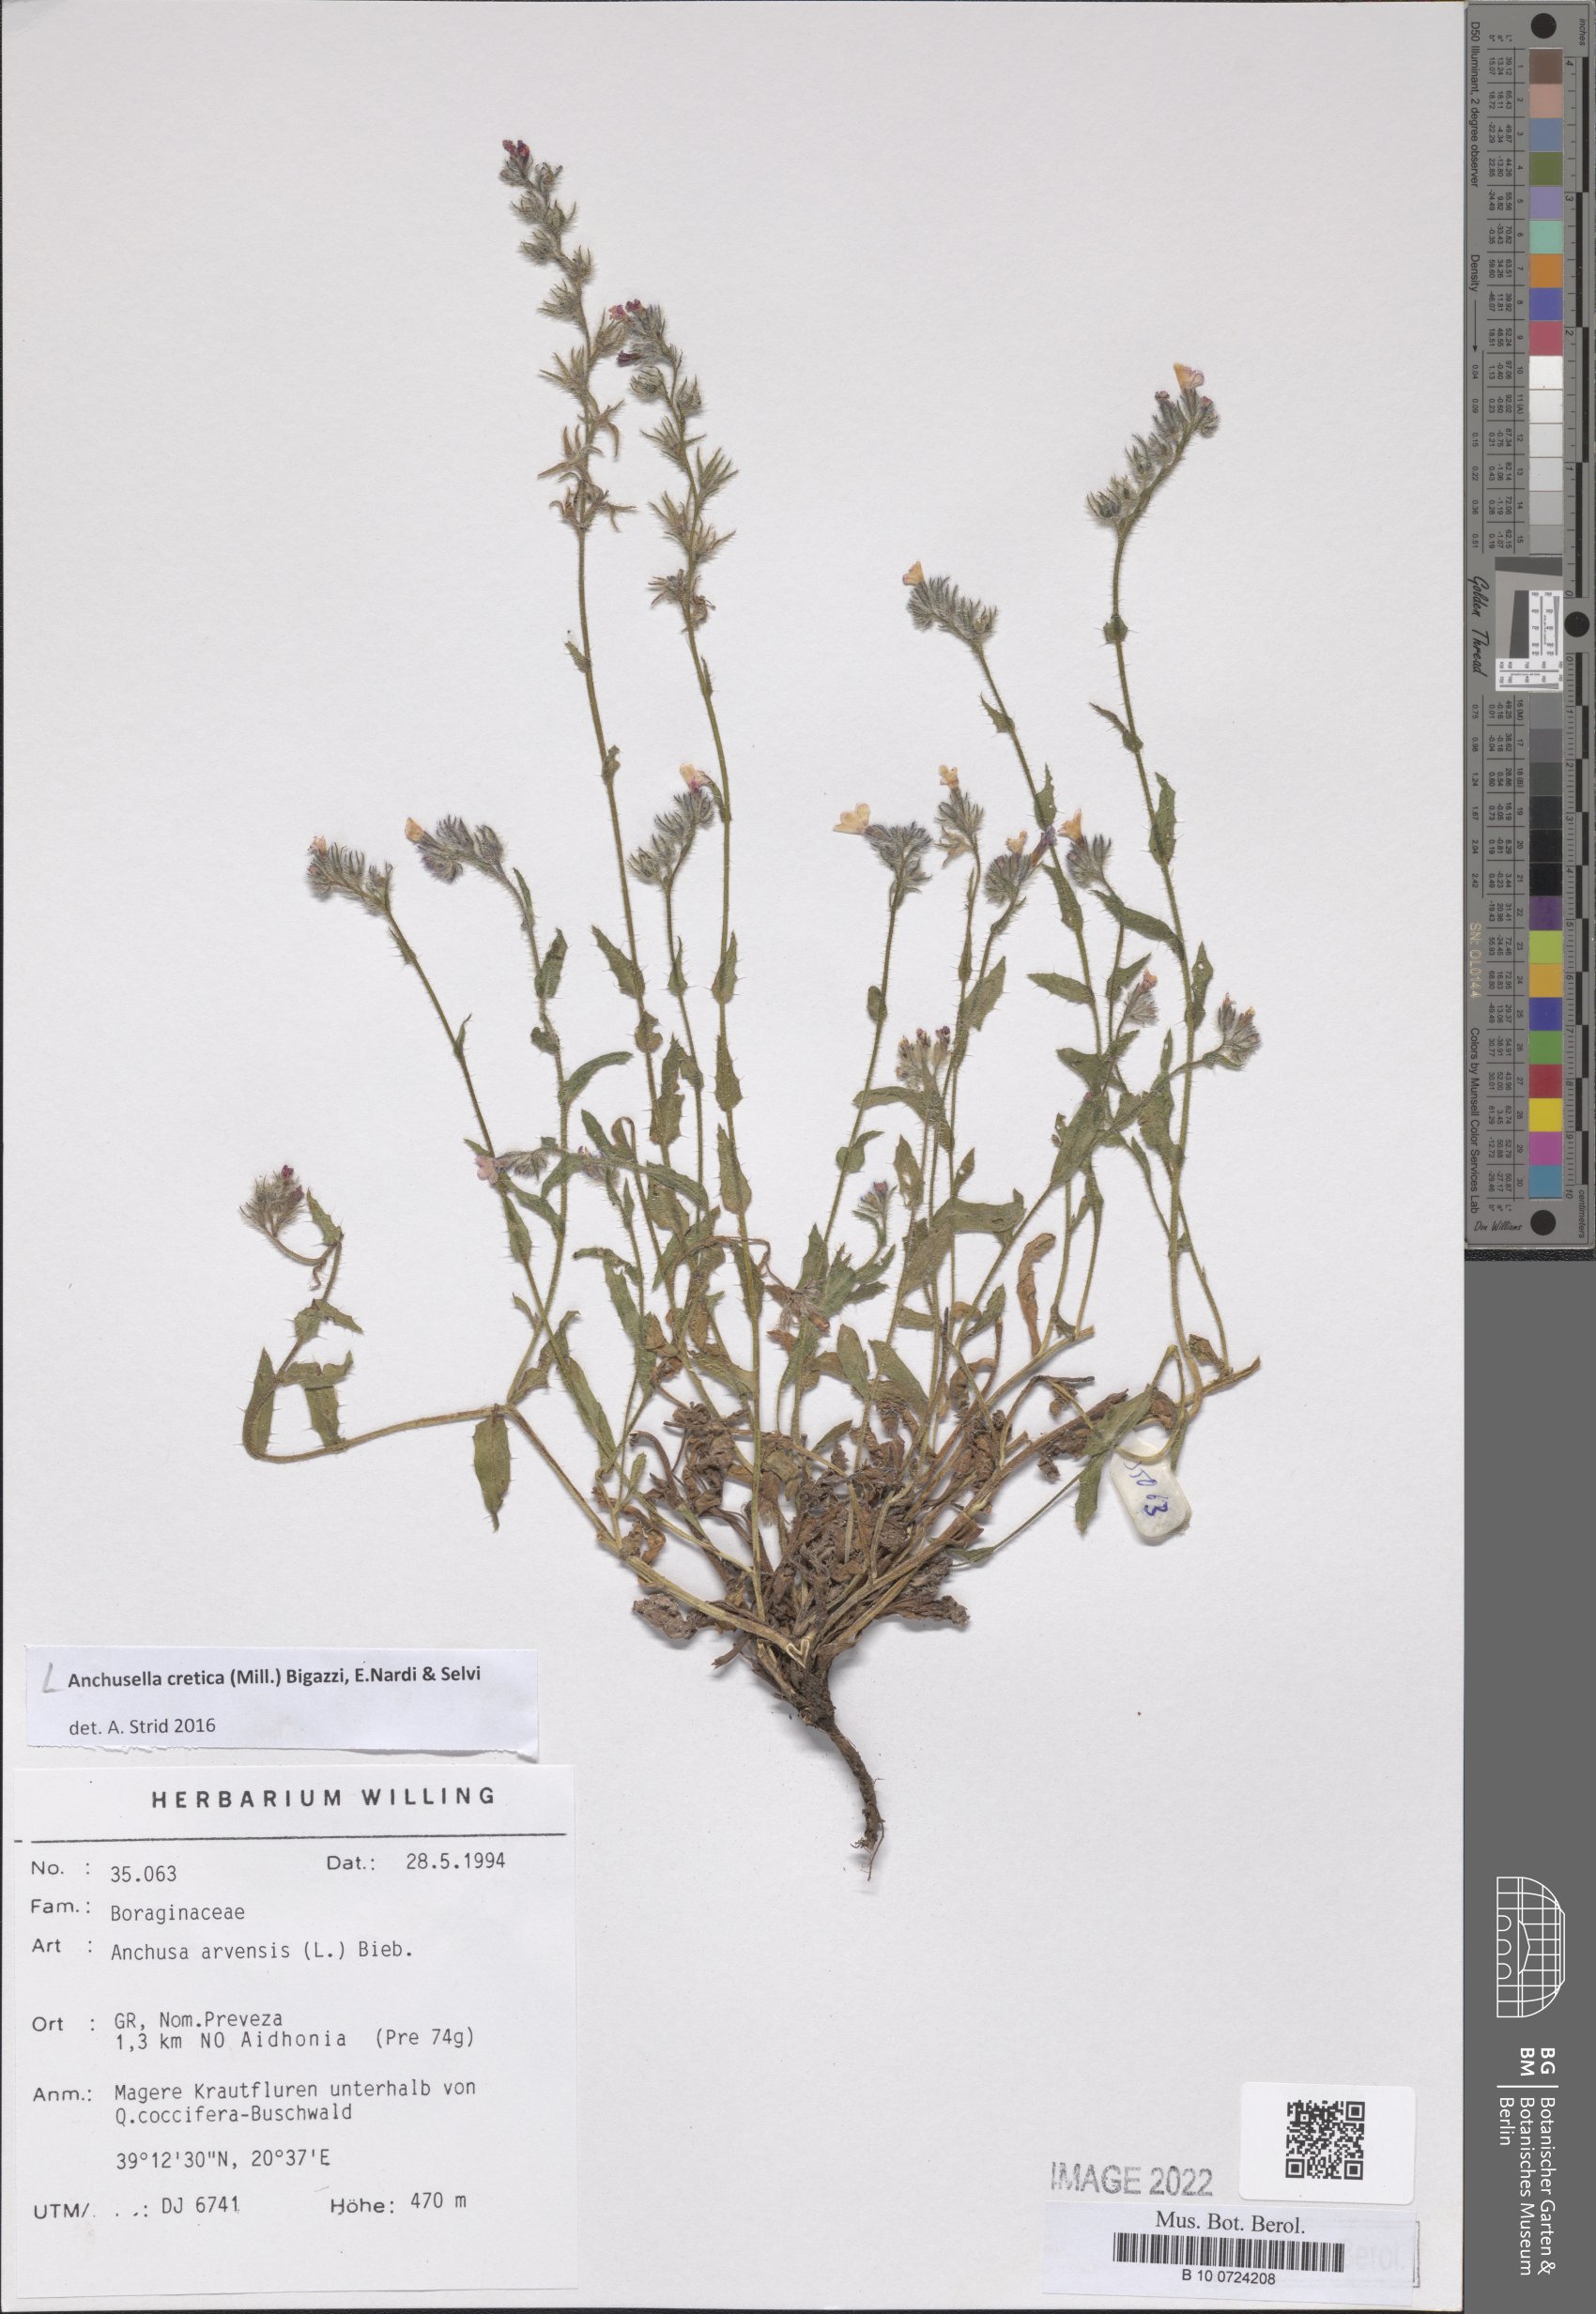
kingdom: Plantae
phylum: Tracheophyta
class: Magnoliopsida
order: Boraginales
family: Boraginaceae
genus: Anchusella
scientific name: Anchusella cretica
